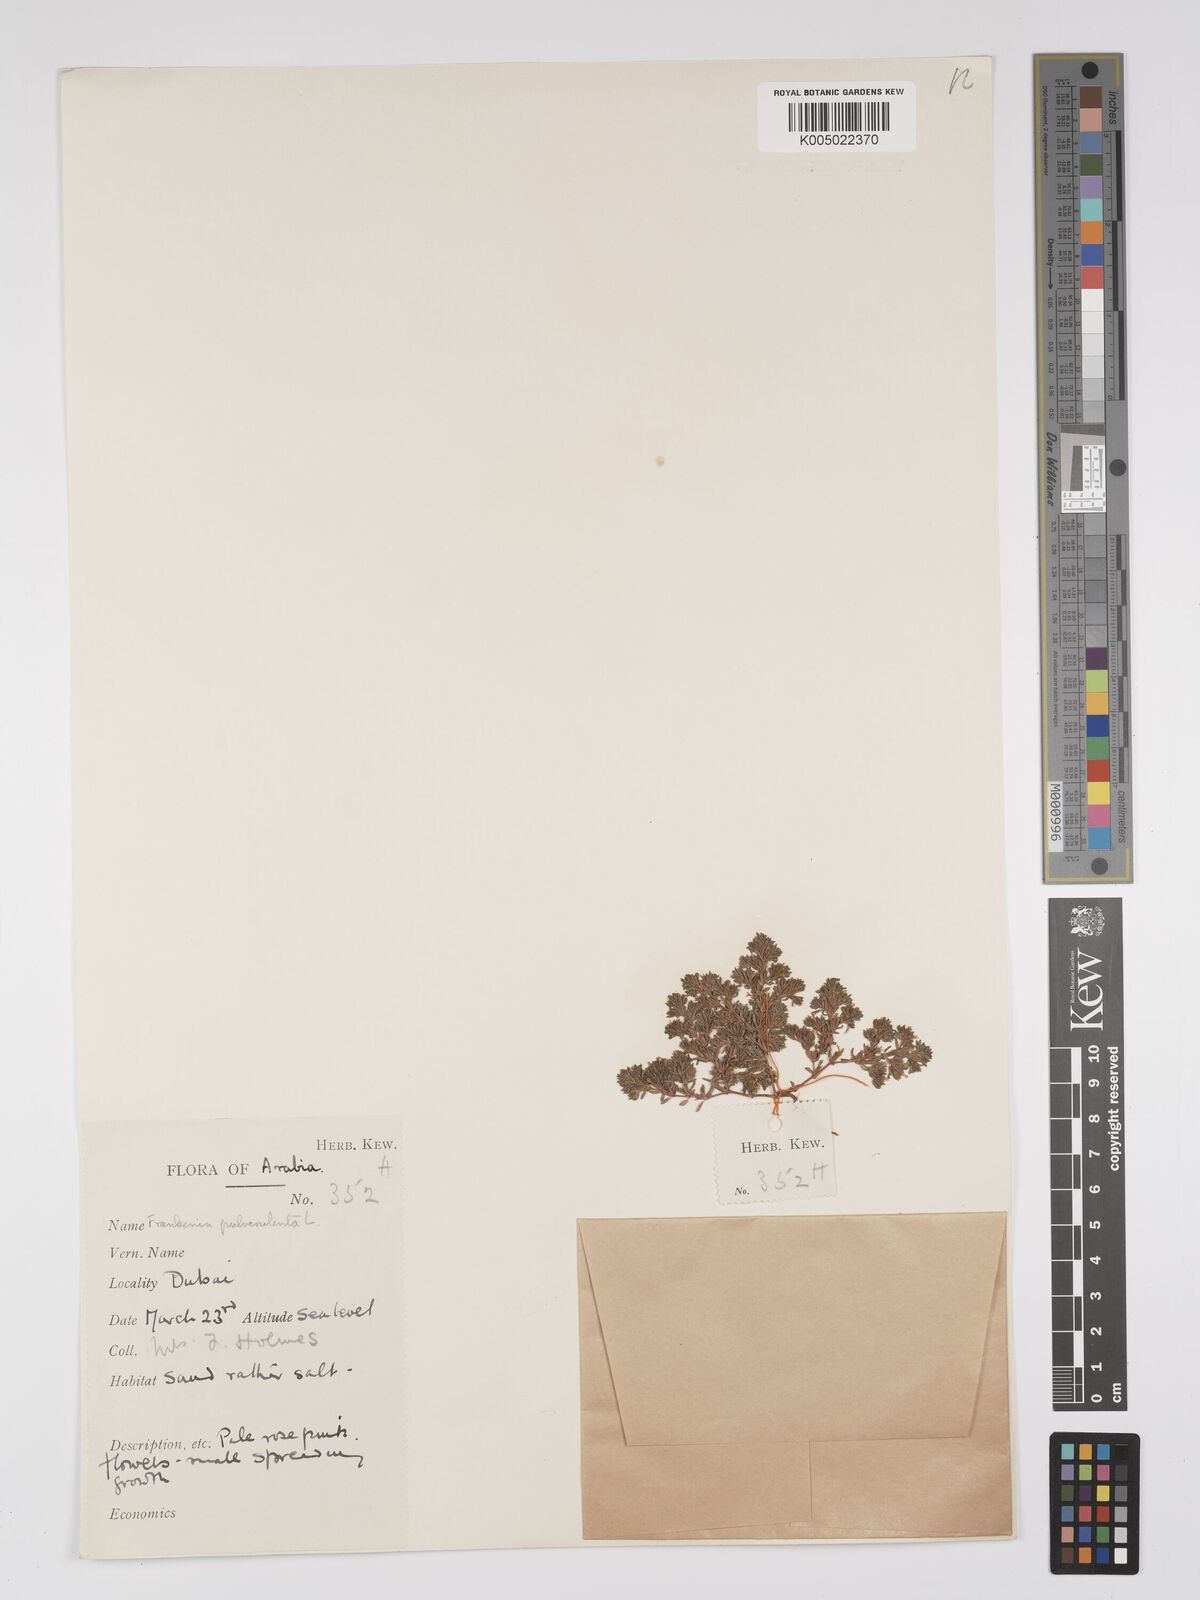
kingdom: Plantae
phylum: Tracheophyta
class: Magnoliopsida
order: Caryophyllales
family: Frankeniaceae
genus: Frankenia
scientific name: Frankenia pulverulenta
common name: European seaheath
